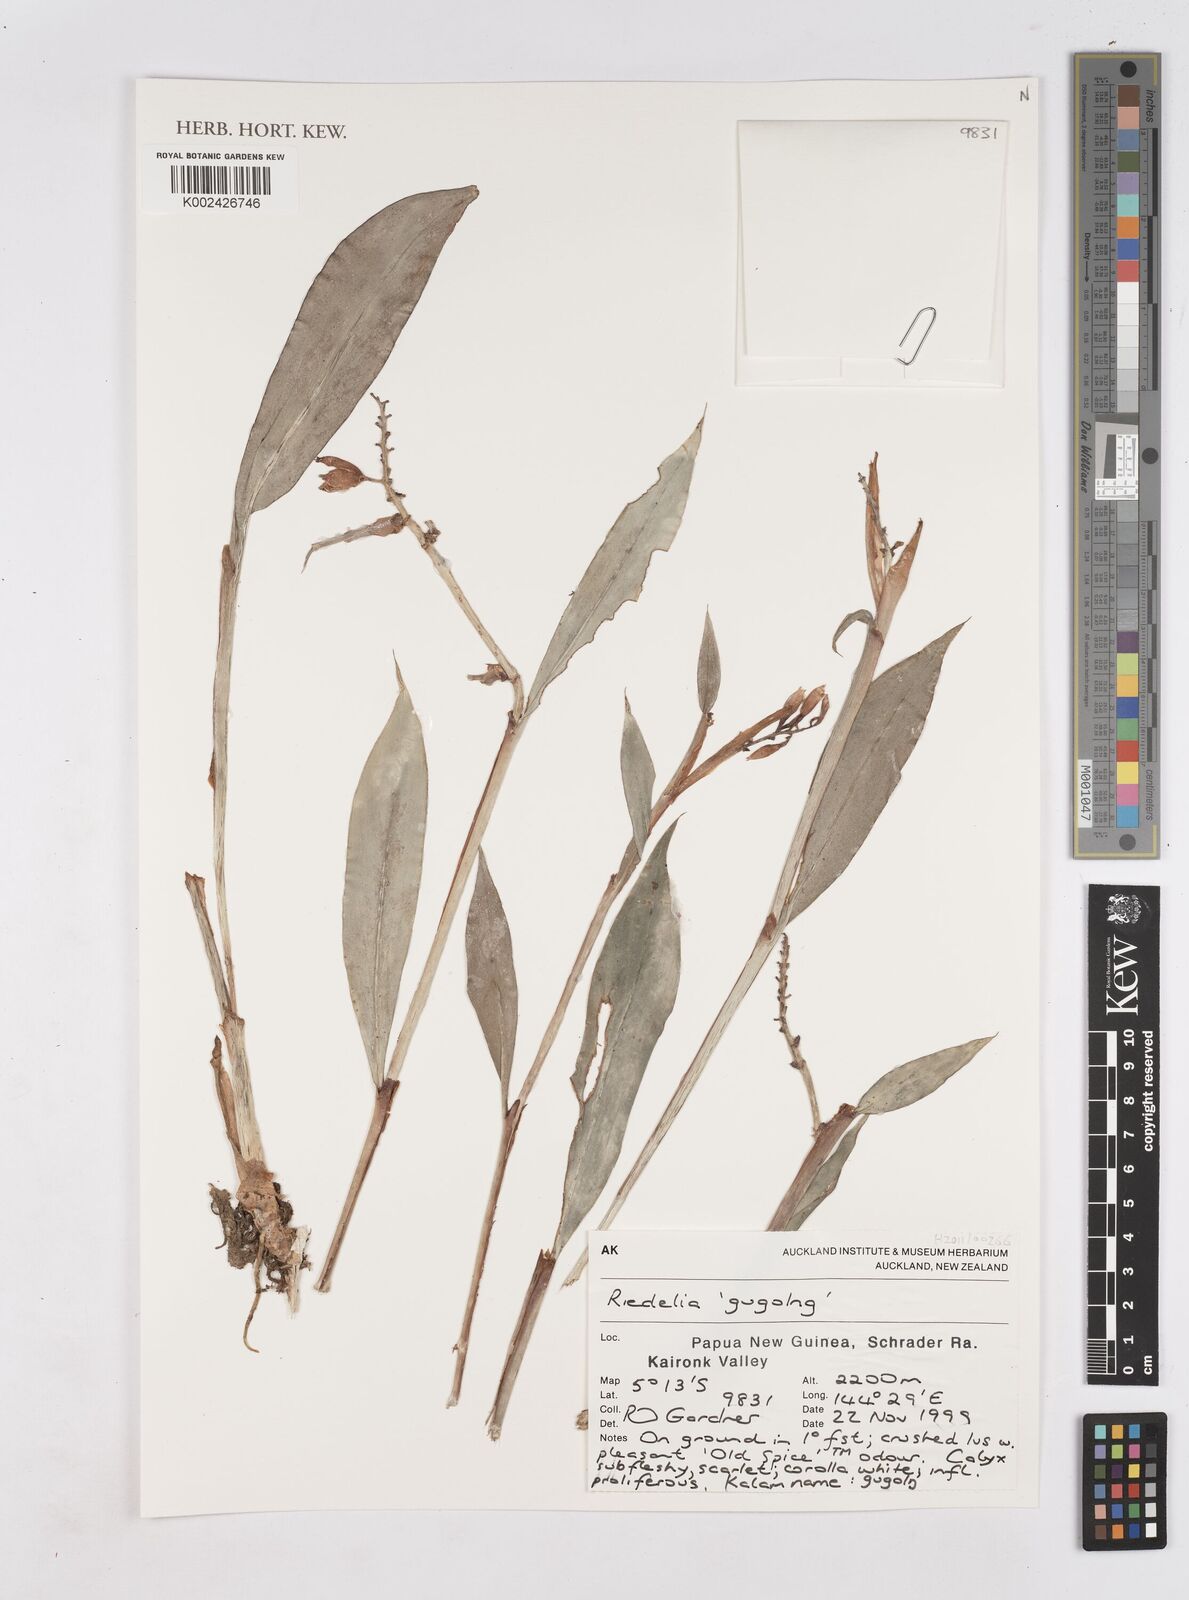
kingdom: Plantae
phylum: Tracheophyta
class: Liliopsida
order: Zingiberales
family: Zingiberaceae
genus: Riedelia
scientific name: Riedelia
